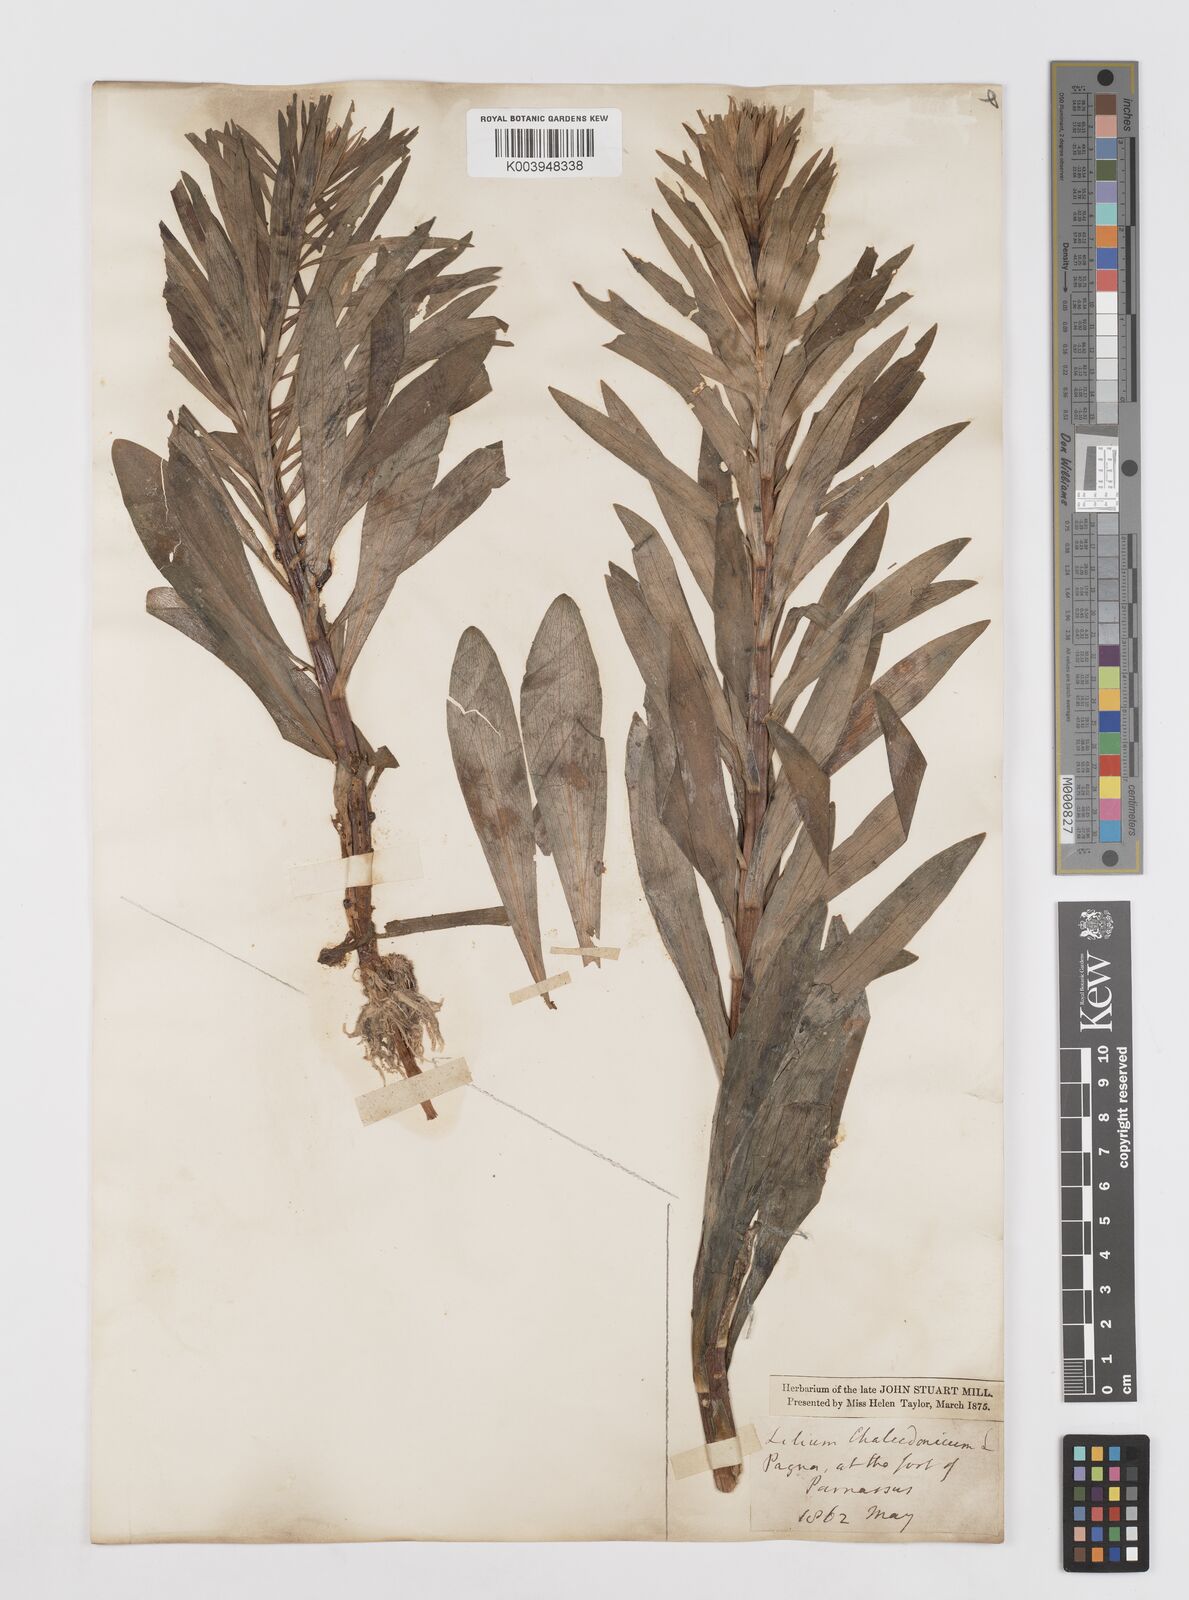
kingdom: Plantae
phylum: Tracheophyta
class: Liliopsida
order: Liliales
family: Liliaceae
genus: Lilium
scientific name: Lilium
